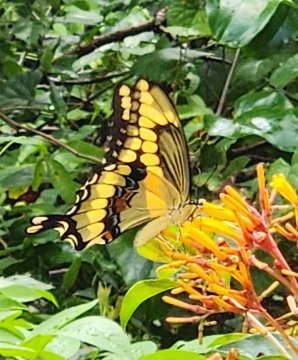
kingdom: Animalia
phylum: Arthropoda
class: Insecta
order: Lepidoptera
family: Papilionidae
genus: Papilio
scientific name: Papilio cresphontes
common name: Eastern Giant Swallowtail
